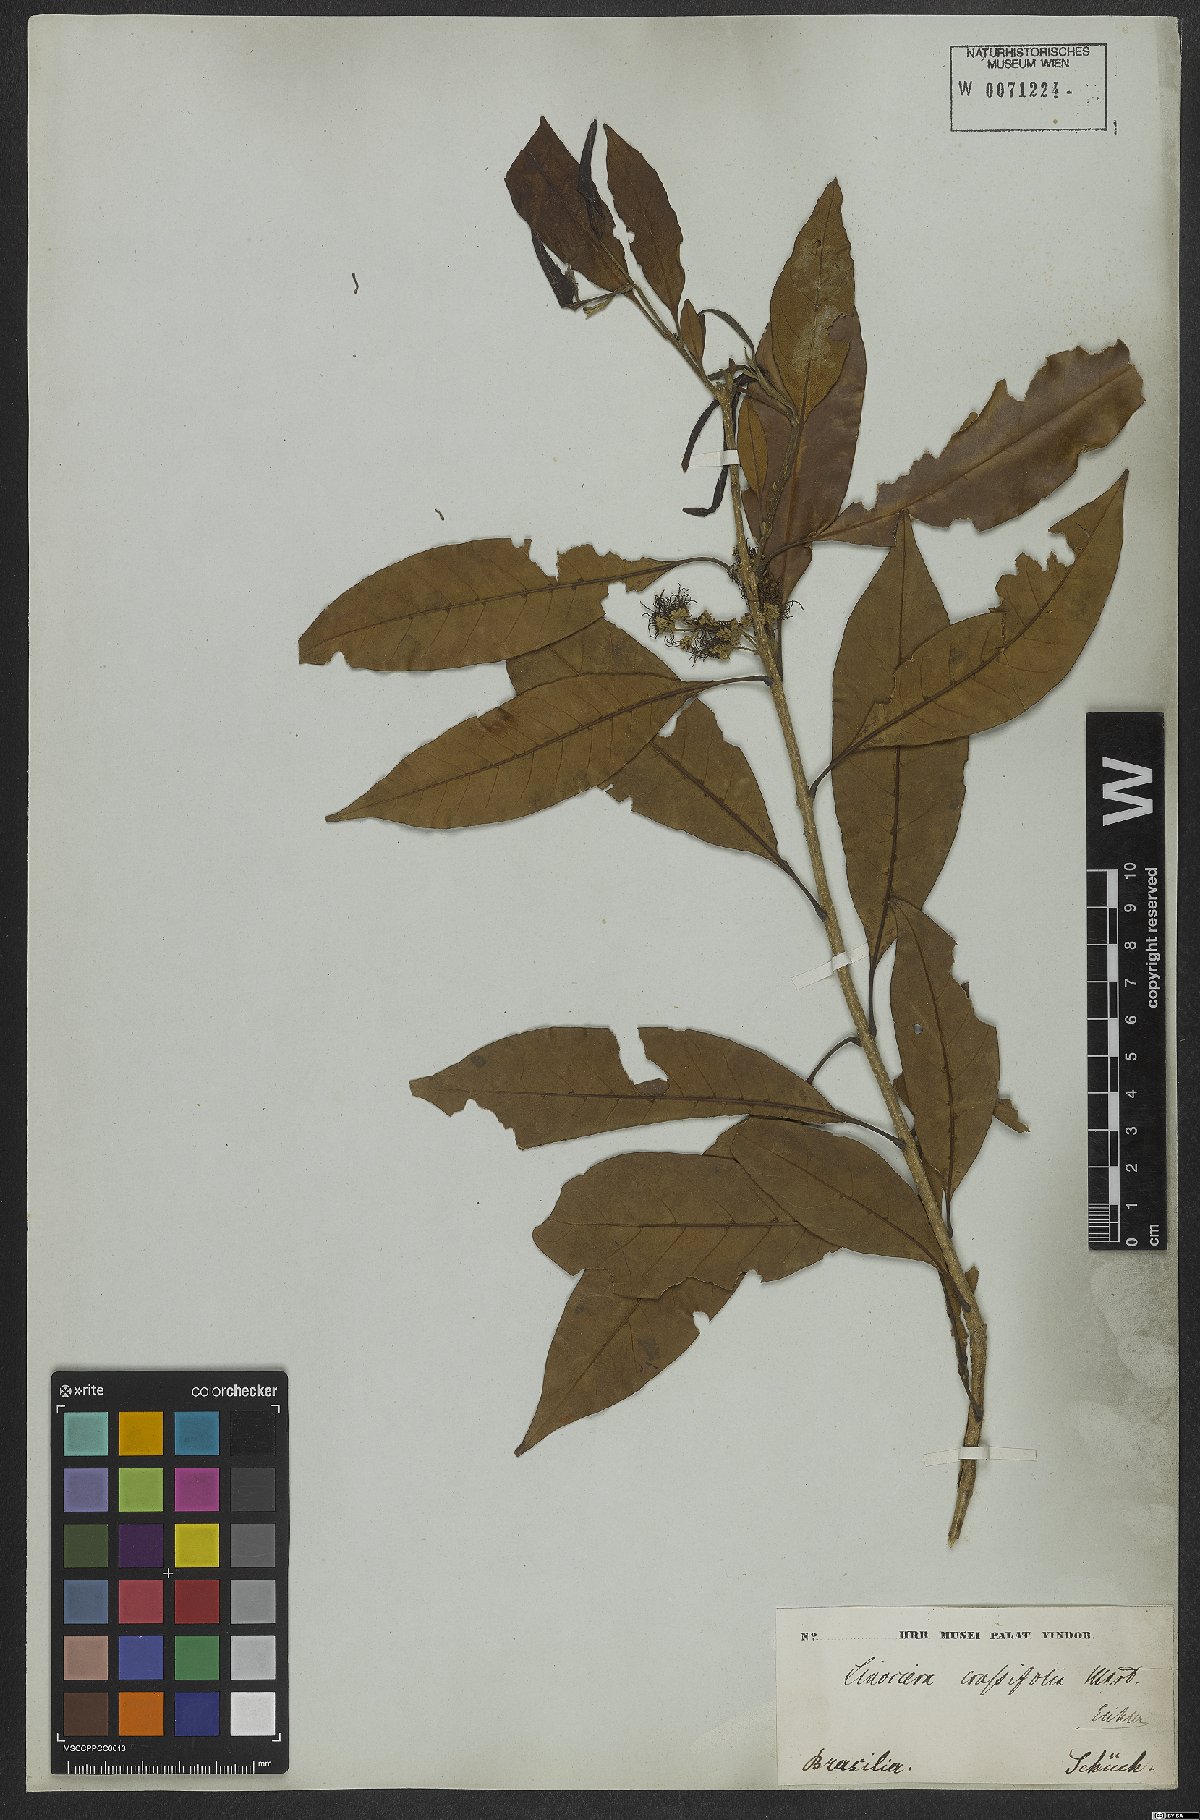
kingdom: Plantae
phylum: Tracheophyta
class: Magnoliopsida
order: Lamiales
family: Oleaceae
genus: Chionanthus
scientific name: Chionanthus crassifolius
